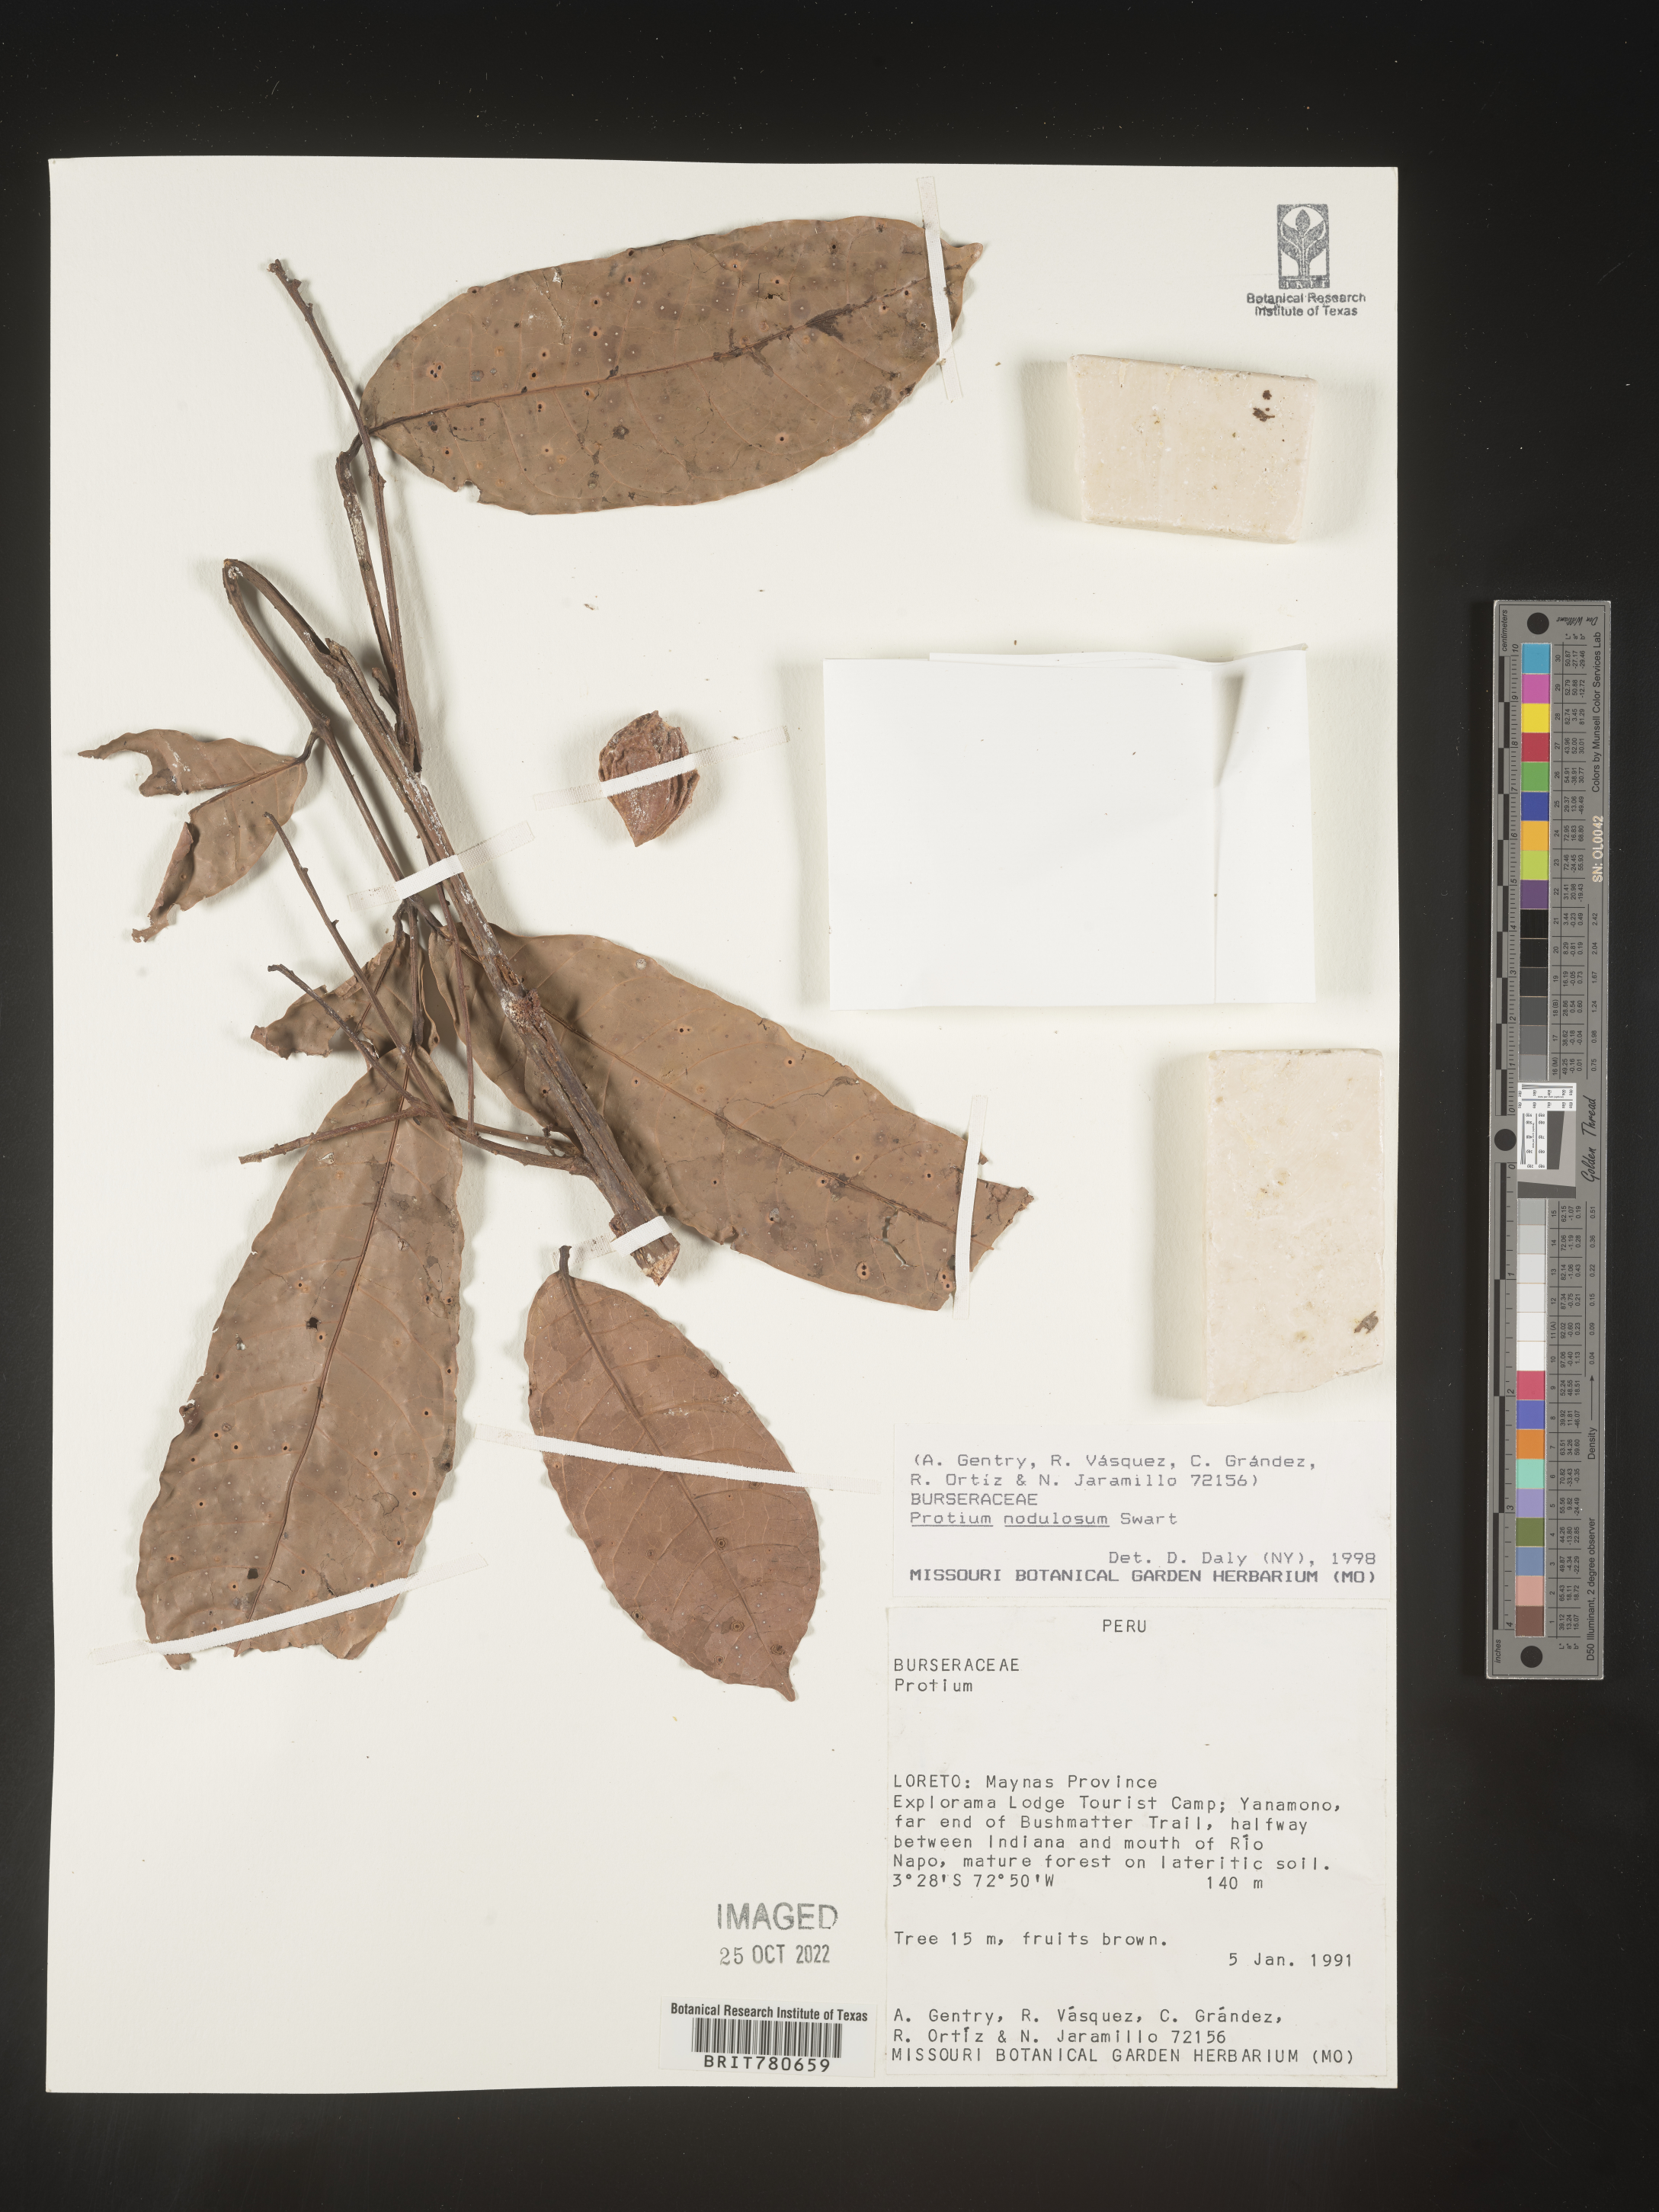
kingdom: Plantae
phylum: Tracheophyta
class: Magnoliopsida
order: Sapindales
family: Burseraceae
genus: Protium
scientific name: Protium
